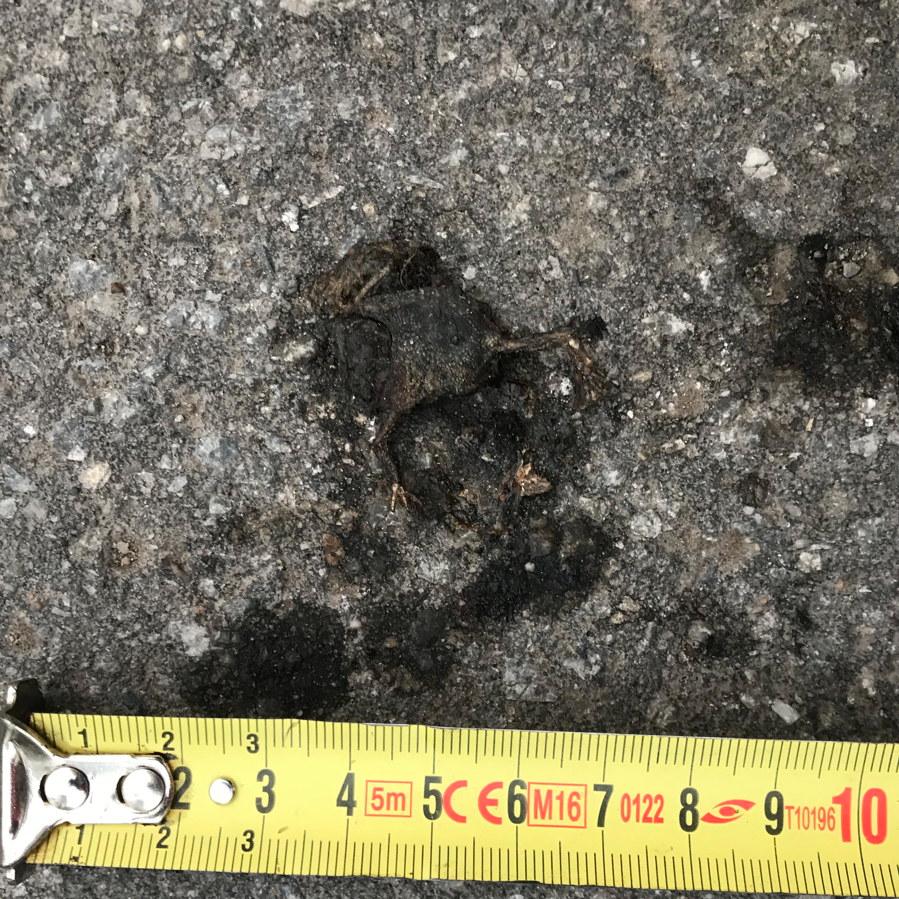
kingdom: Animalia
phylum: Chordata
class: Amphibia
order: Anura
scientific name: Anura
